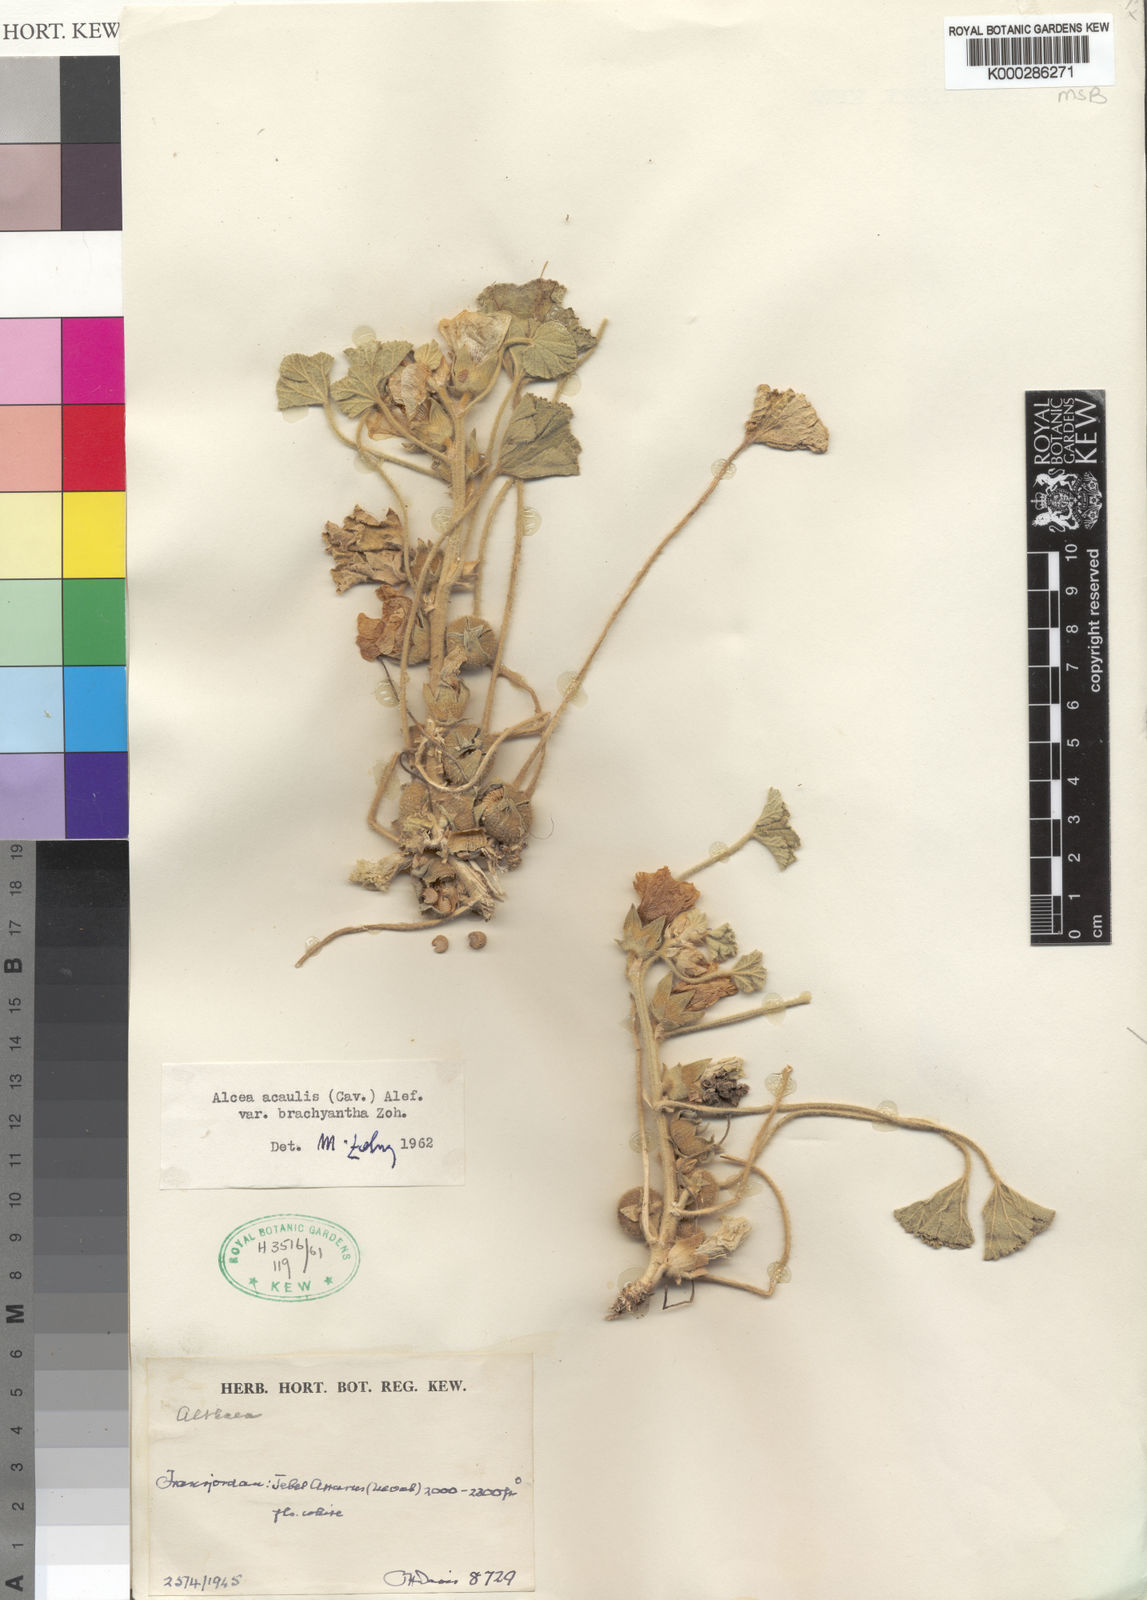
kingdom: Plantae
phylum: Tracheophyta
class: Magnoliopsida
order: Malvales
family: Malvaceae
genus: Alcea
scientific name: Alcea acaulis
